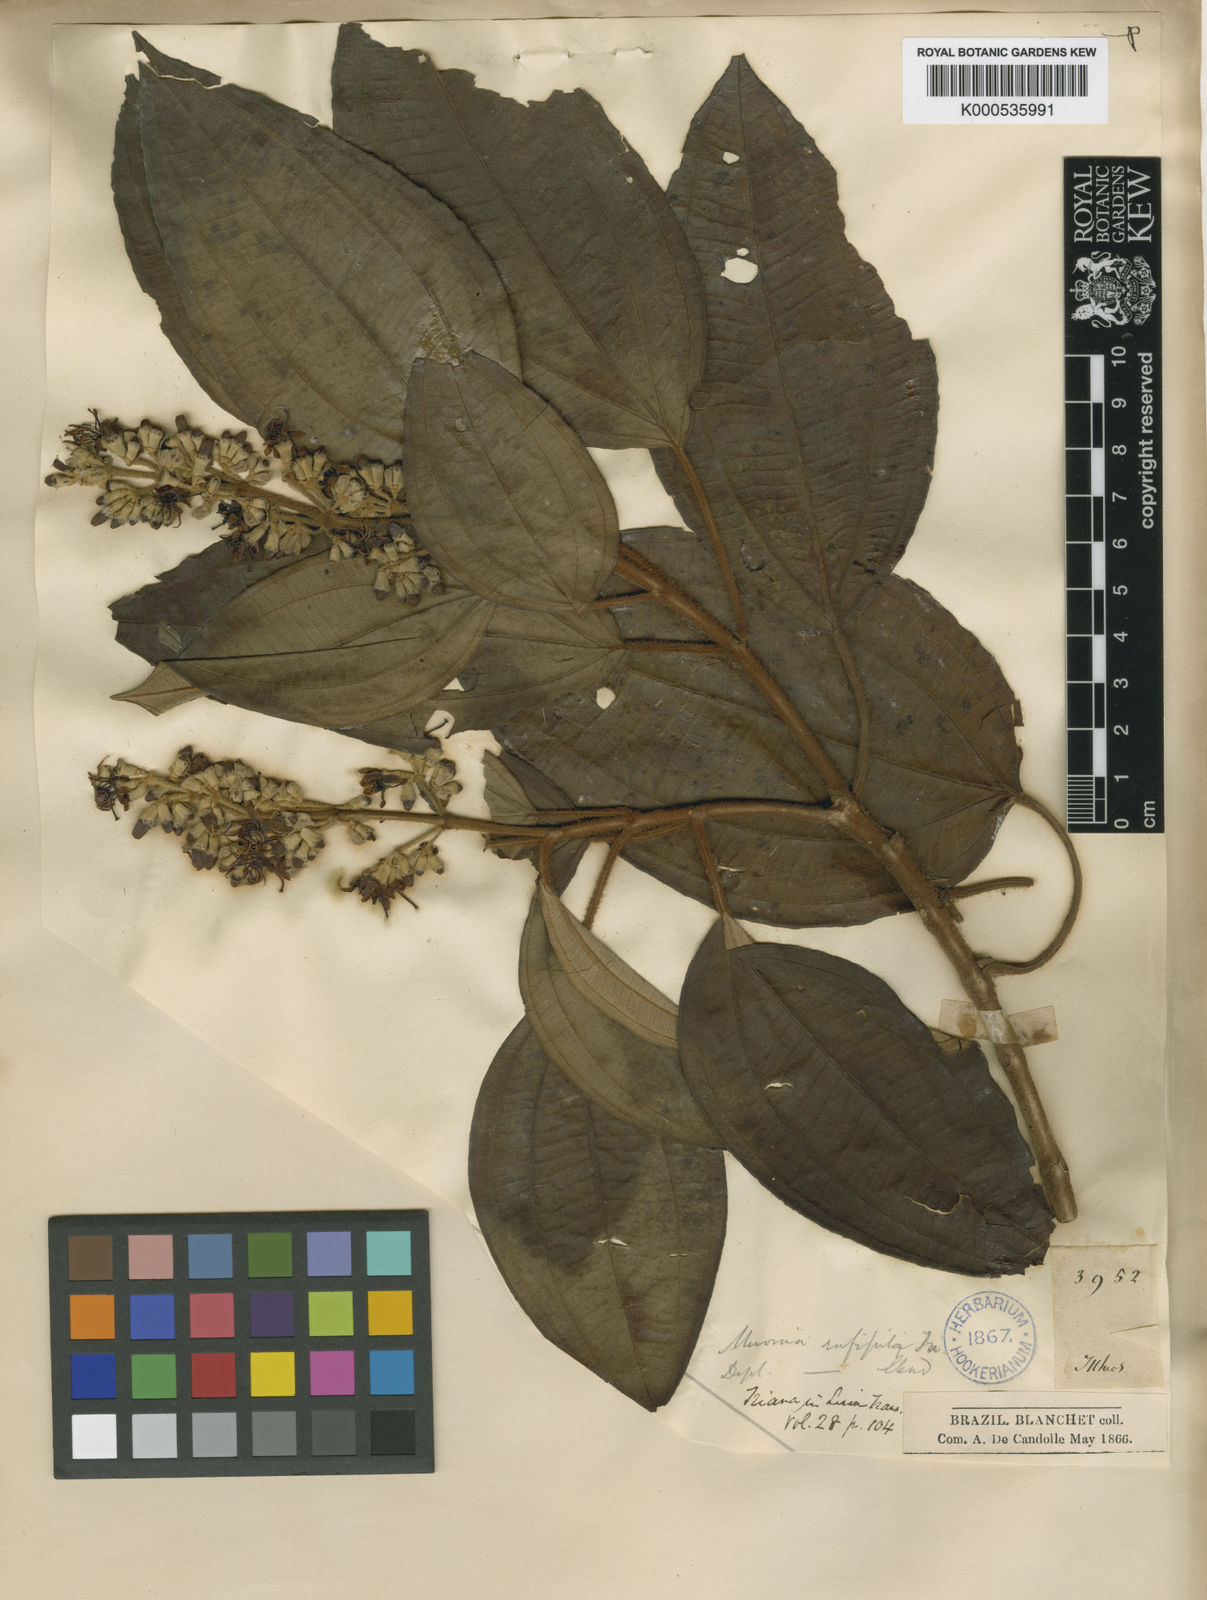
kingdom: Plantae
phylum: Tracheophyta
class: Magnoliopsida
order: Myrtales
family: Melastomataceae
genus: Miconia
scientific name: Miconia rufipila
